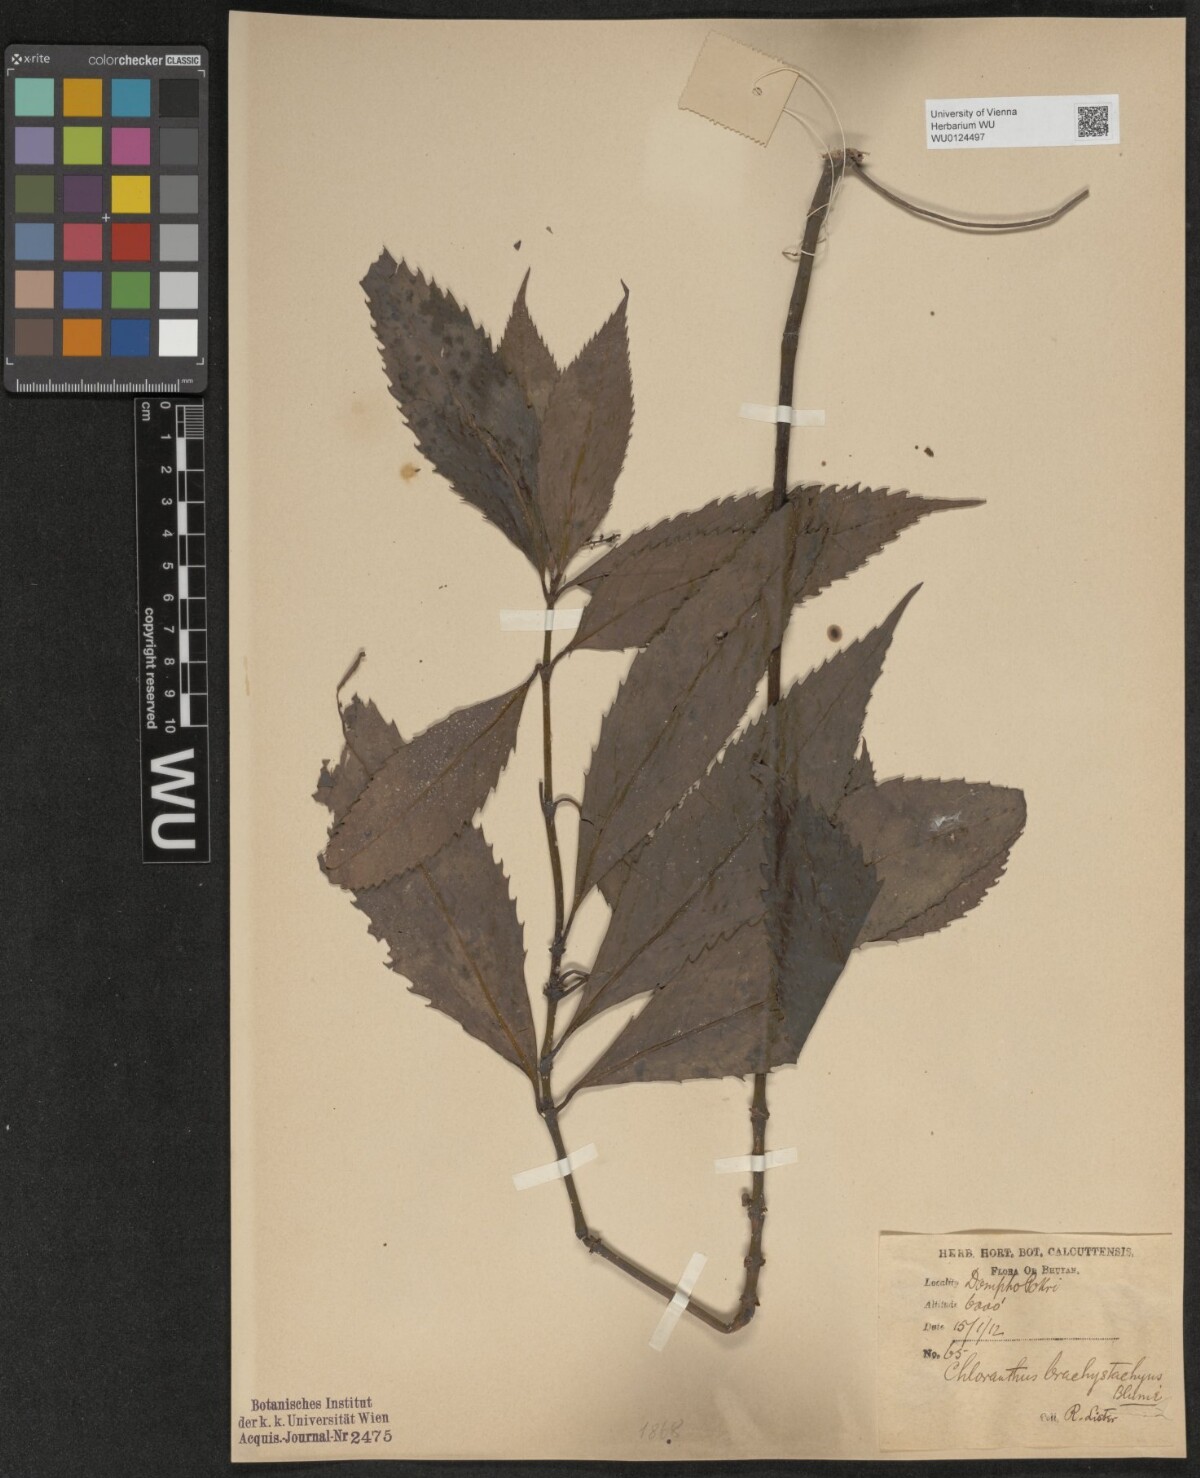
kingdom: Plantae
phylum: Tracheophyta
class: Magnoliopsida
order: Chloranthales
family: Chloranthaceae
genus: Sarcandra
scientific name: Sarcandra glabra
